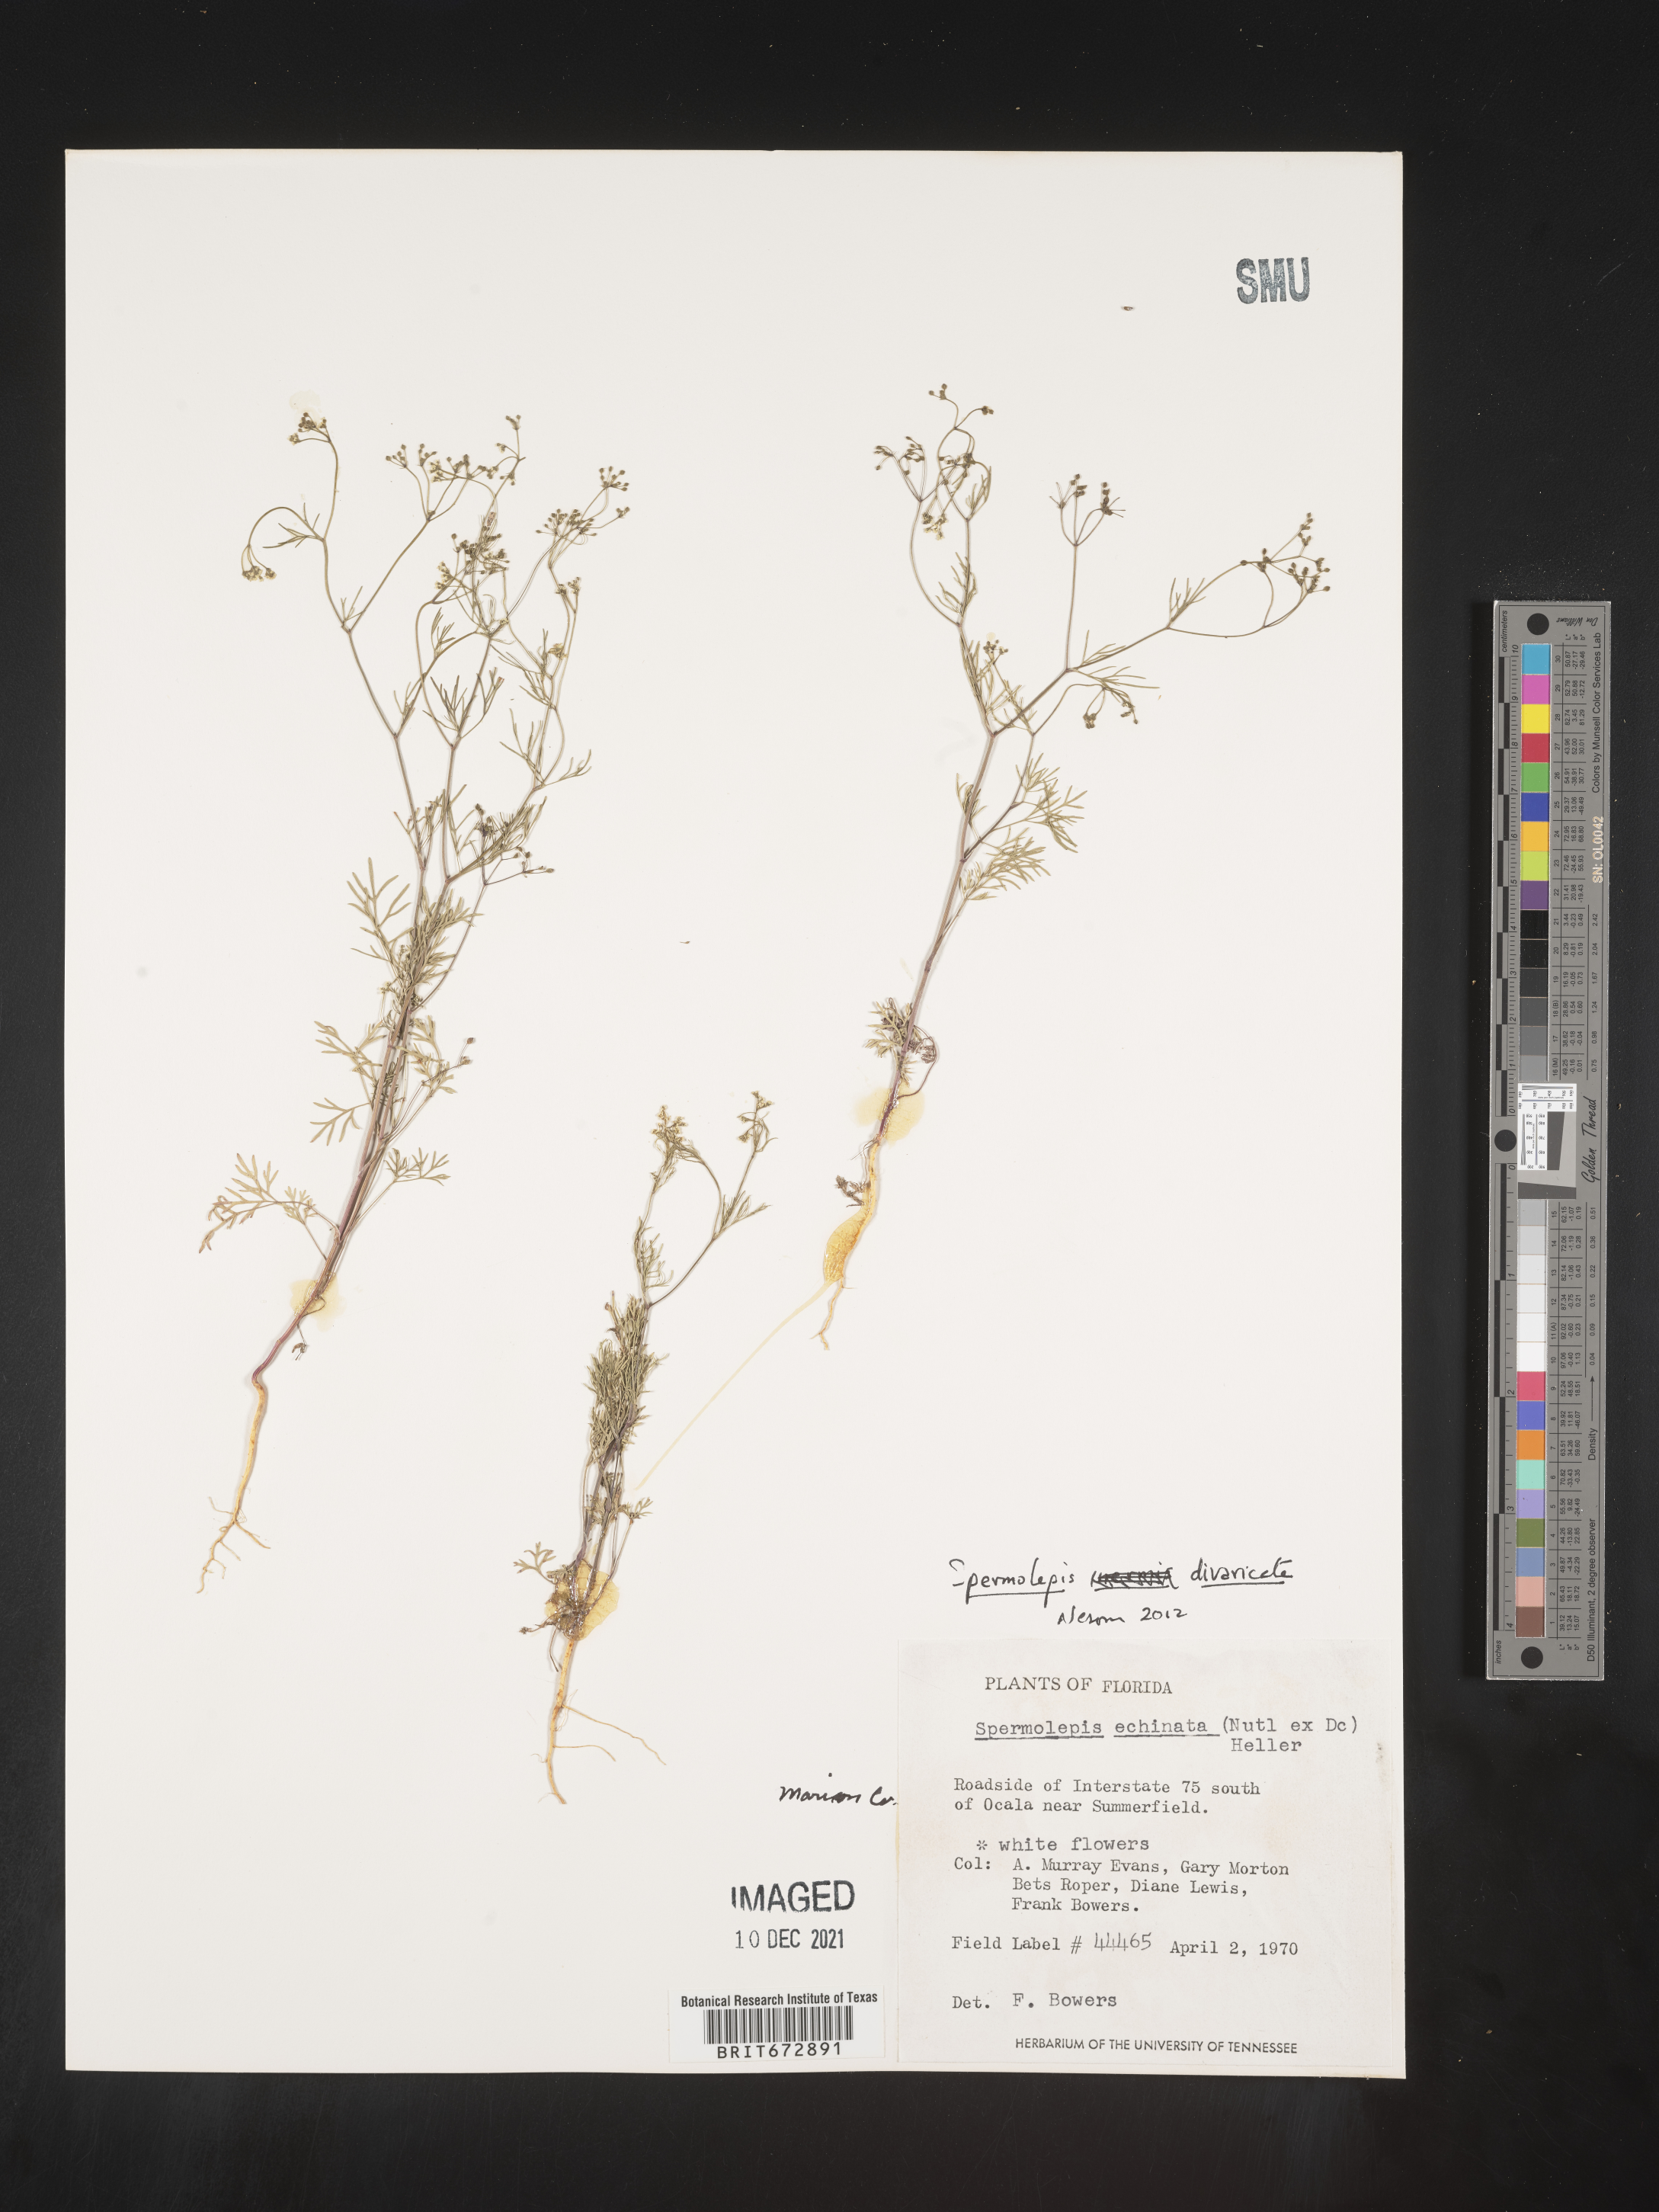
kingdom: Plantae
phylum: Tracheophyta
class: Magnoliopsida
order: Apiales
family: Apiaceae
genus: Spermolepis
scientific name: Spermolepis divaricata
